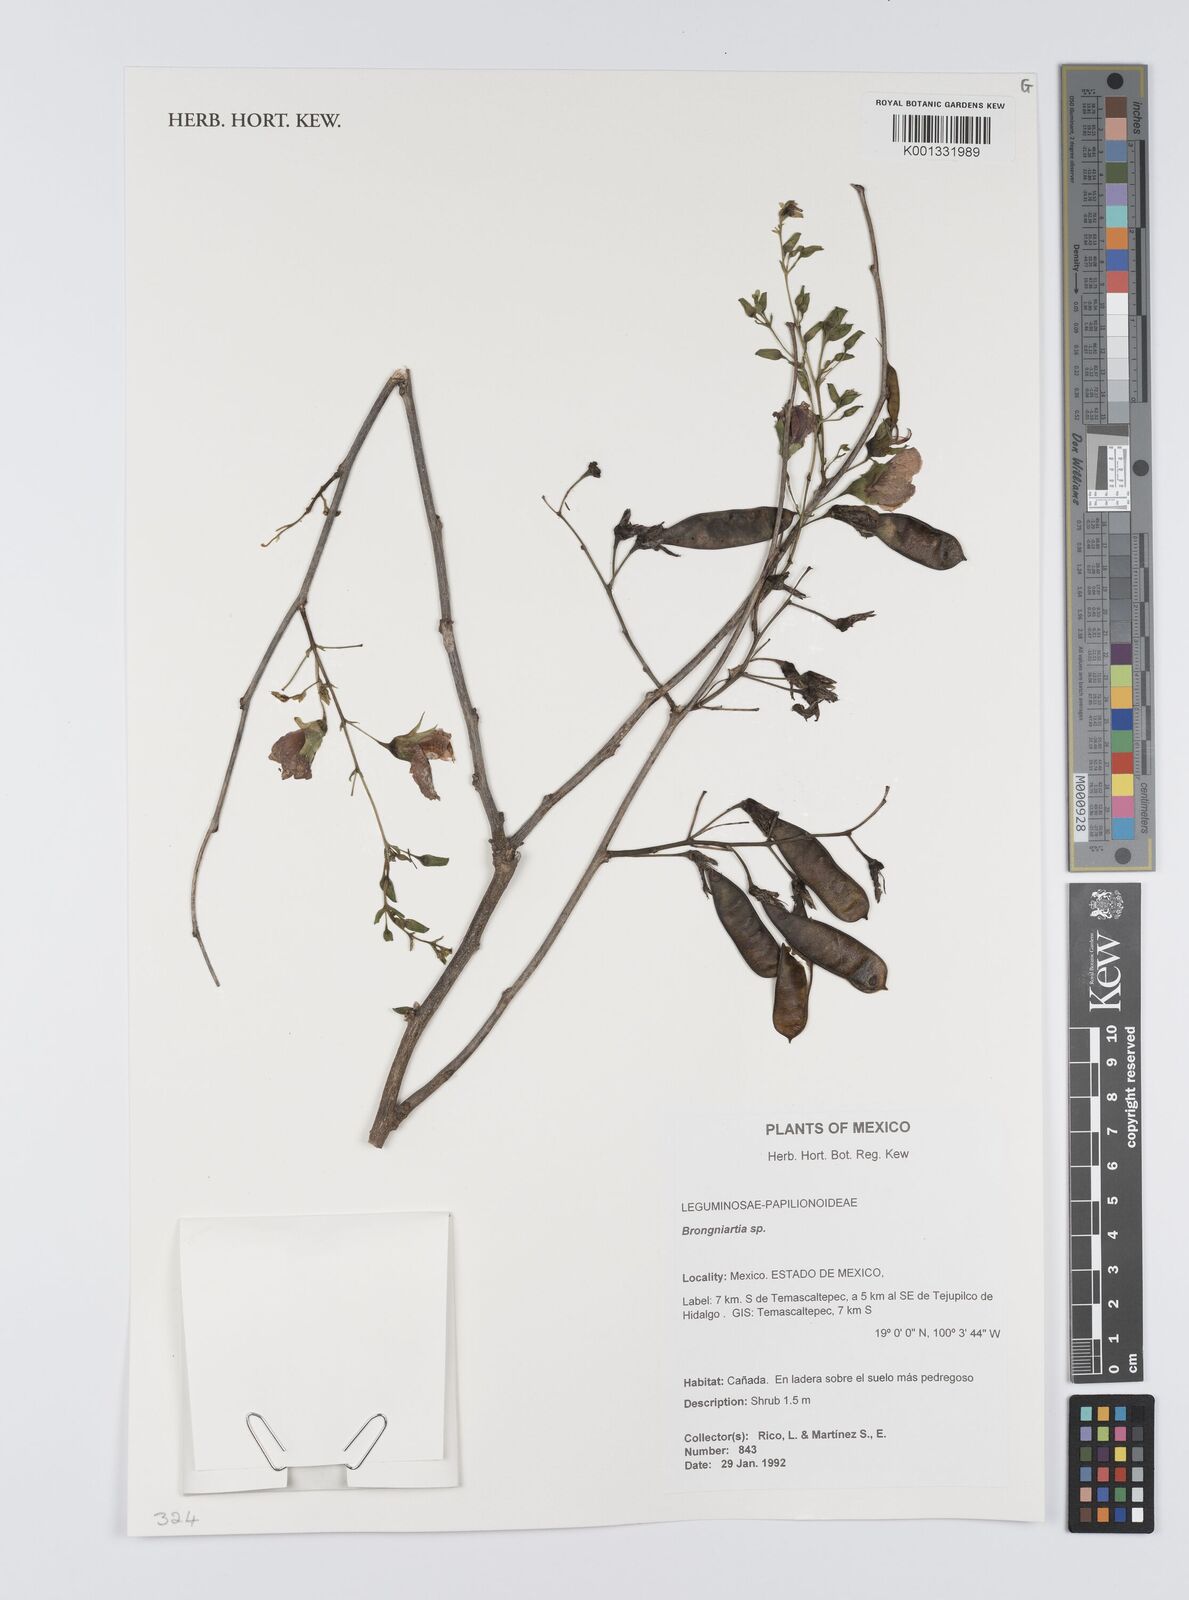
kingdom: Plantae
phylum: Tracheophyta
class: Magnoliopsida
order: Fabales
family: Fabaceae
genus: Brongniartia
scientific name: Brongniartia
